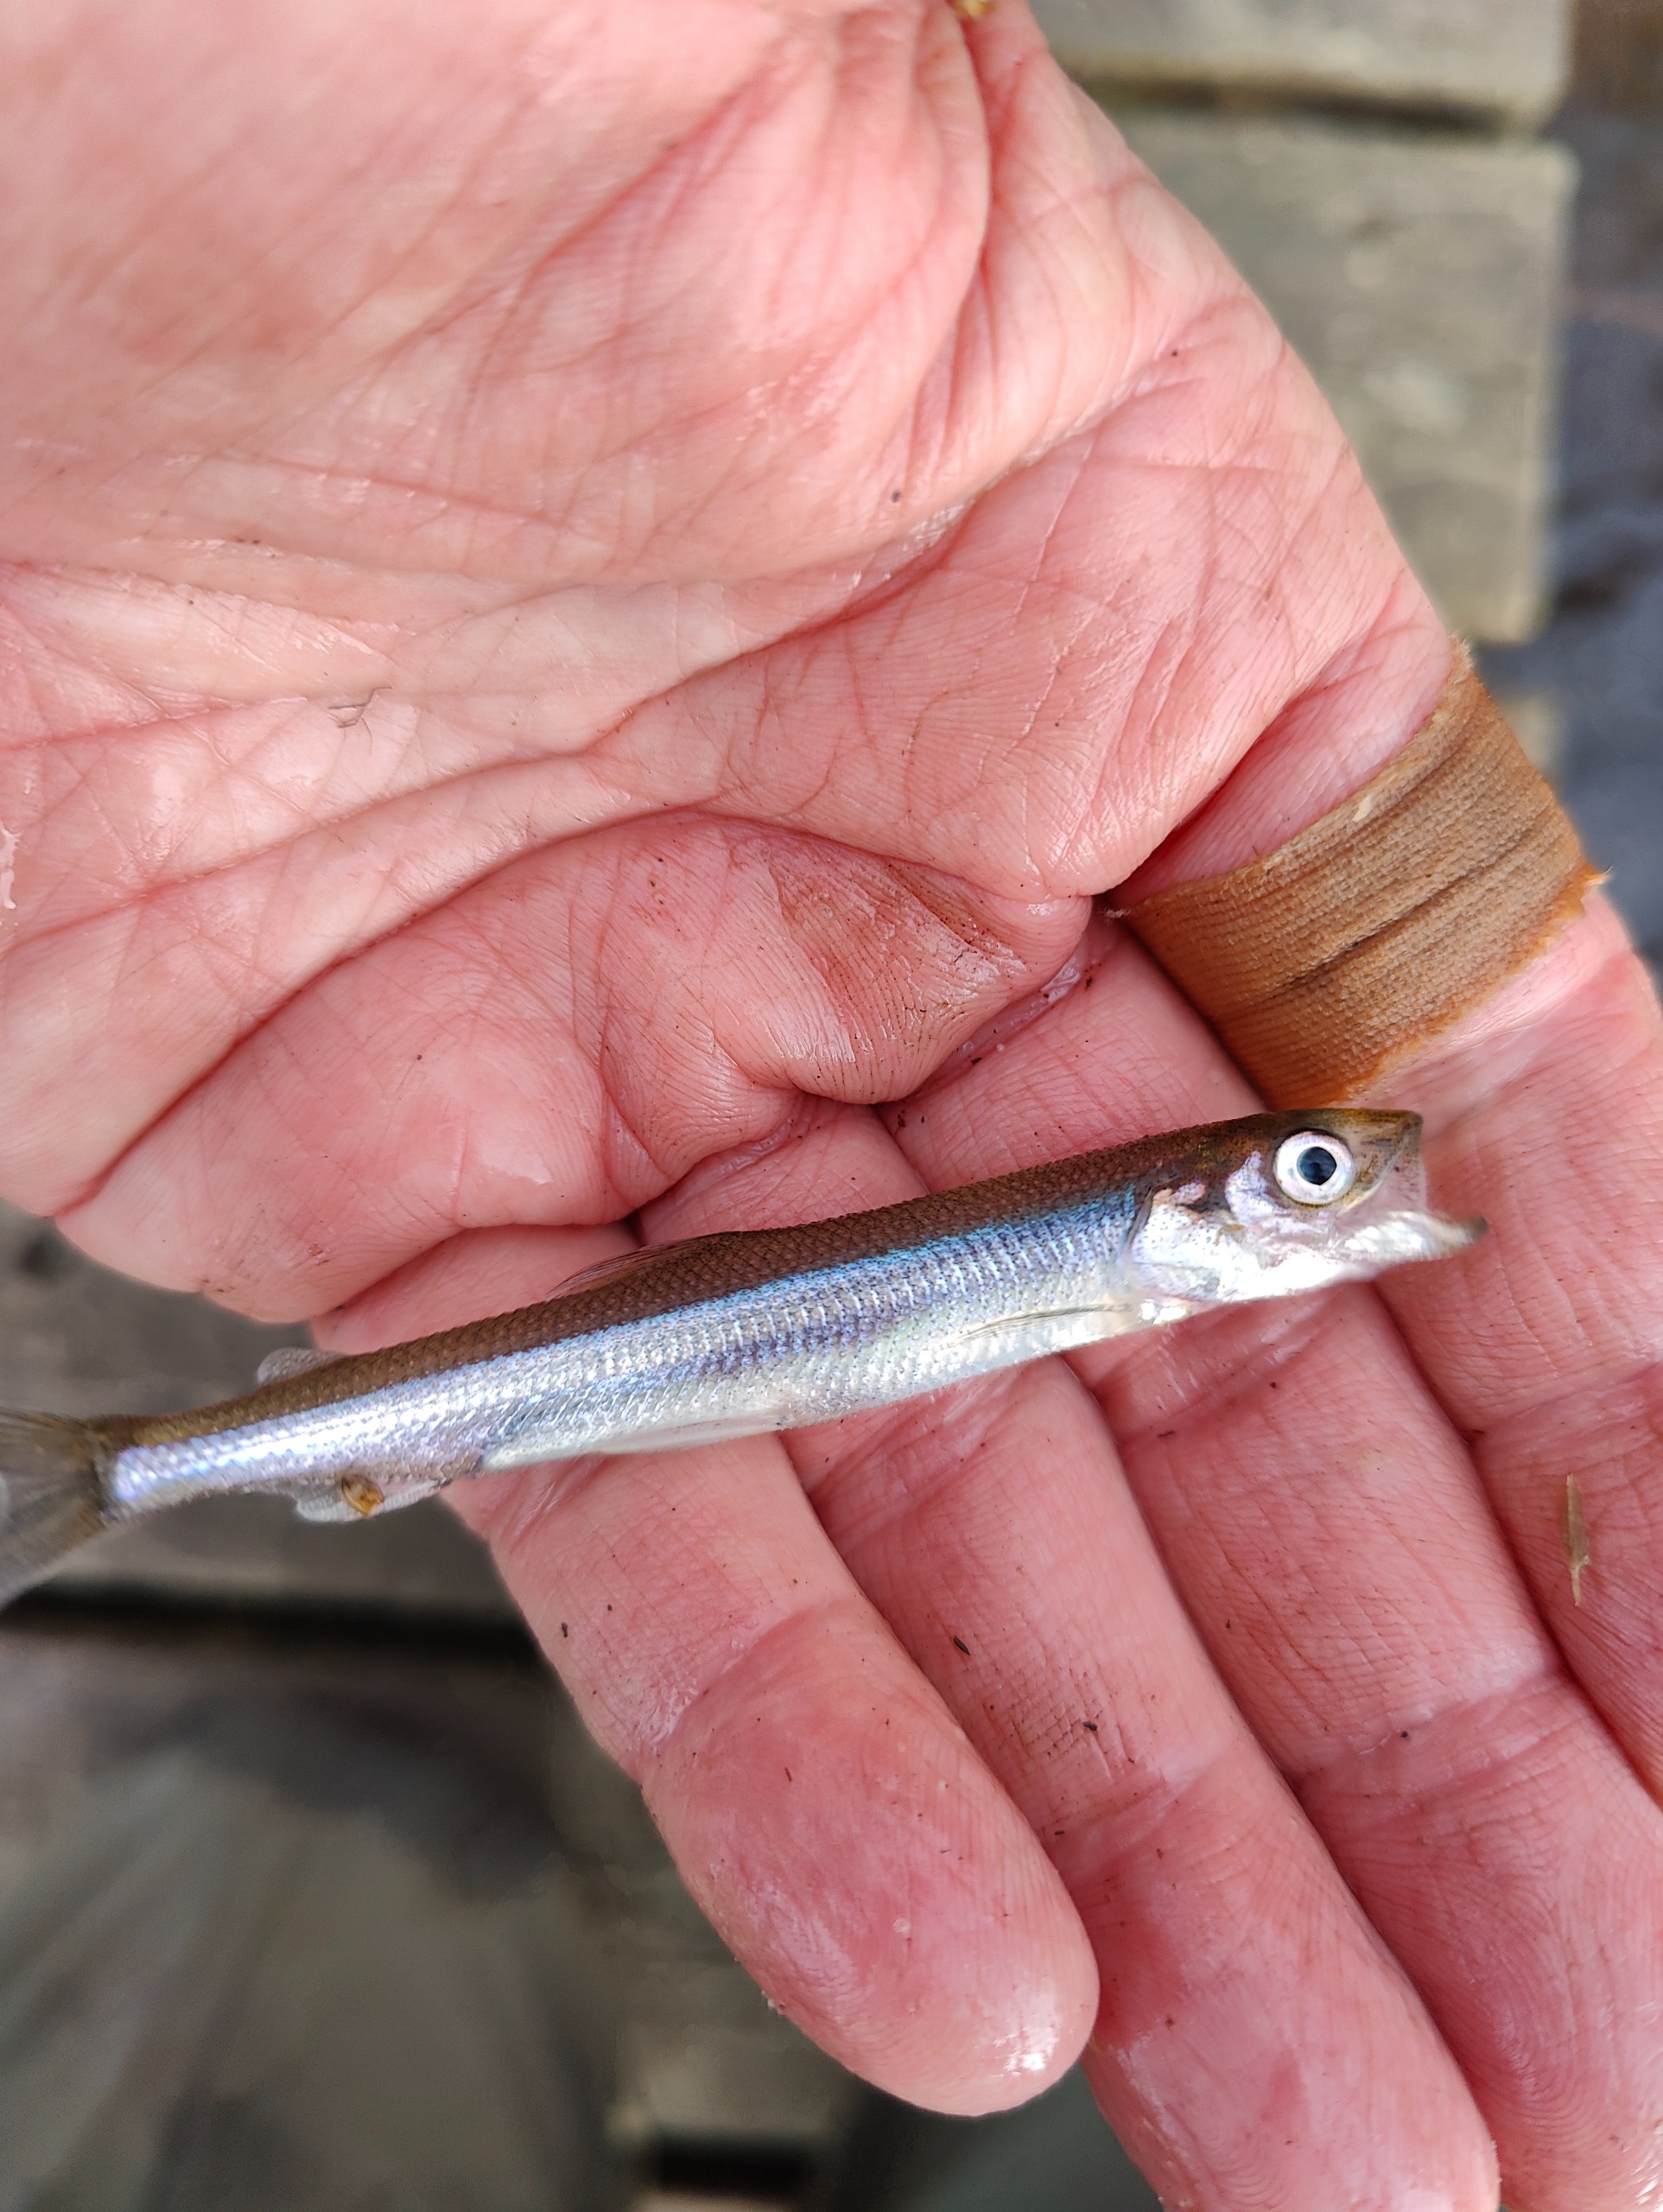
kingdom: Animalia
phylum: Chordata
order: Osmeriformes
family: Osmeridae
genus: Osmerus
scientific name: Osmerus eperlanus
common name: Smelt
